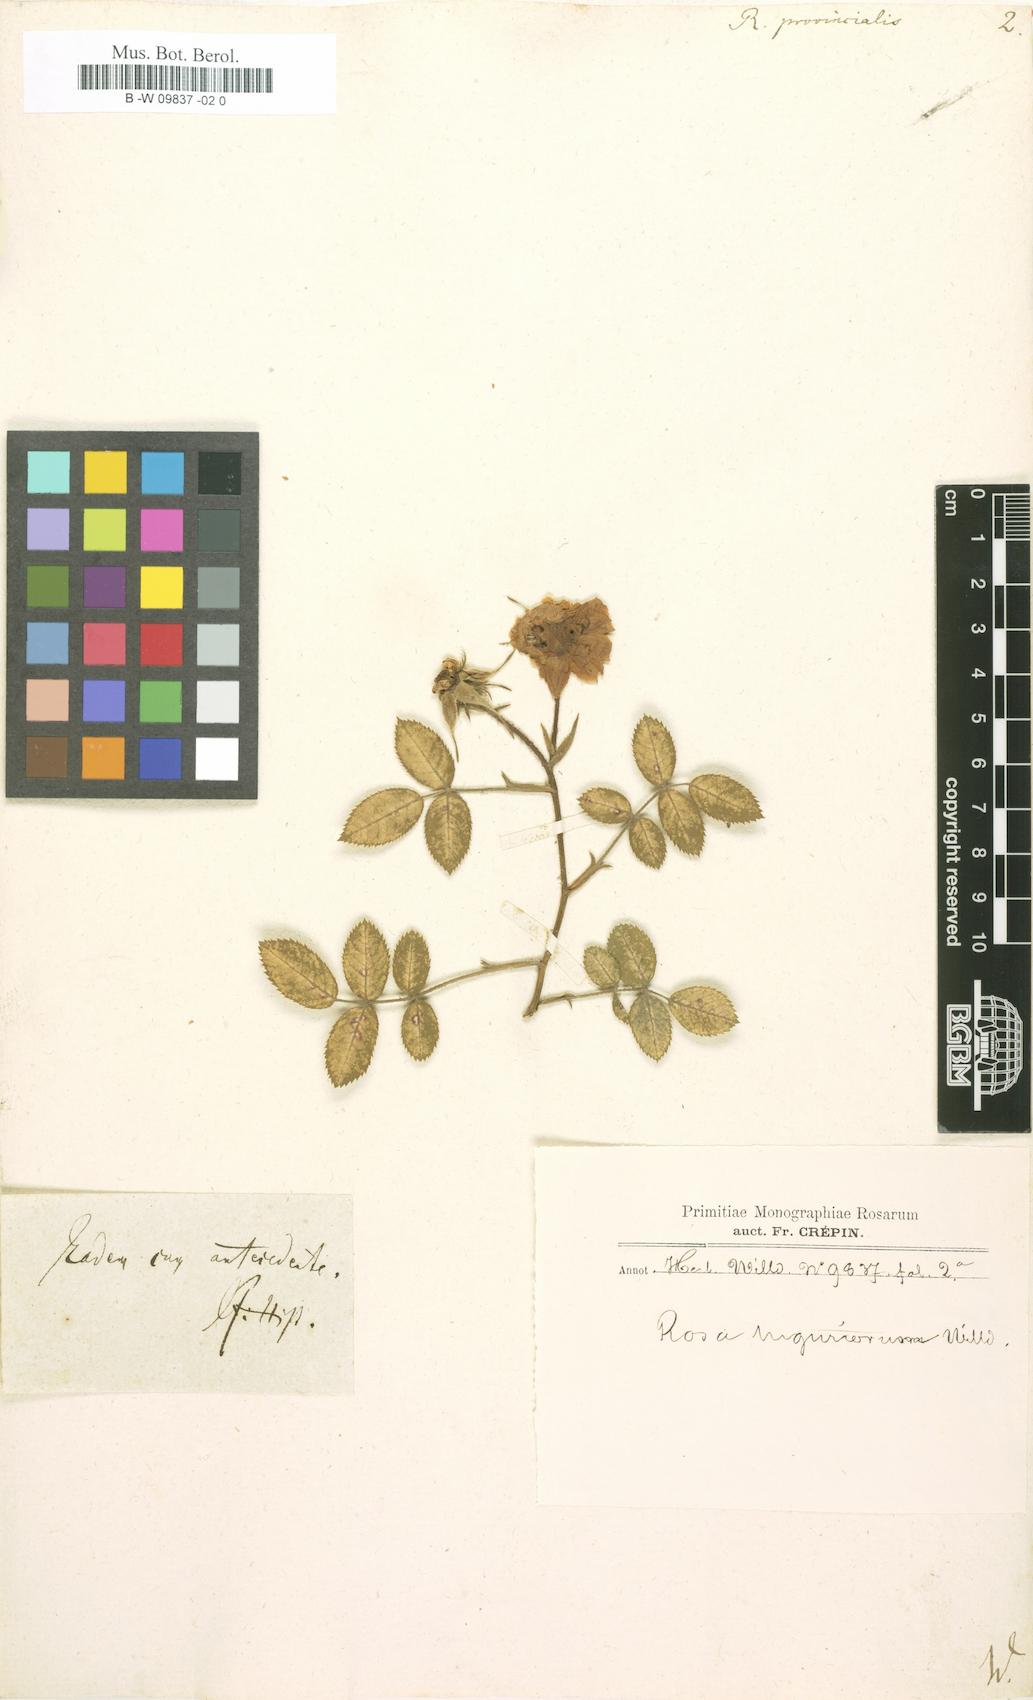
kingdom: Plantae
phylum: Tracheophyta
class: Magnoliopsida
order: Rosales
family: Rosaceae
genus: Rosa
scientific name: Rosa
